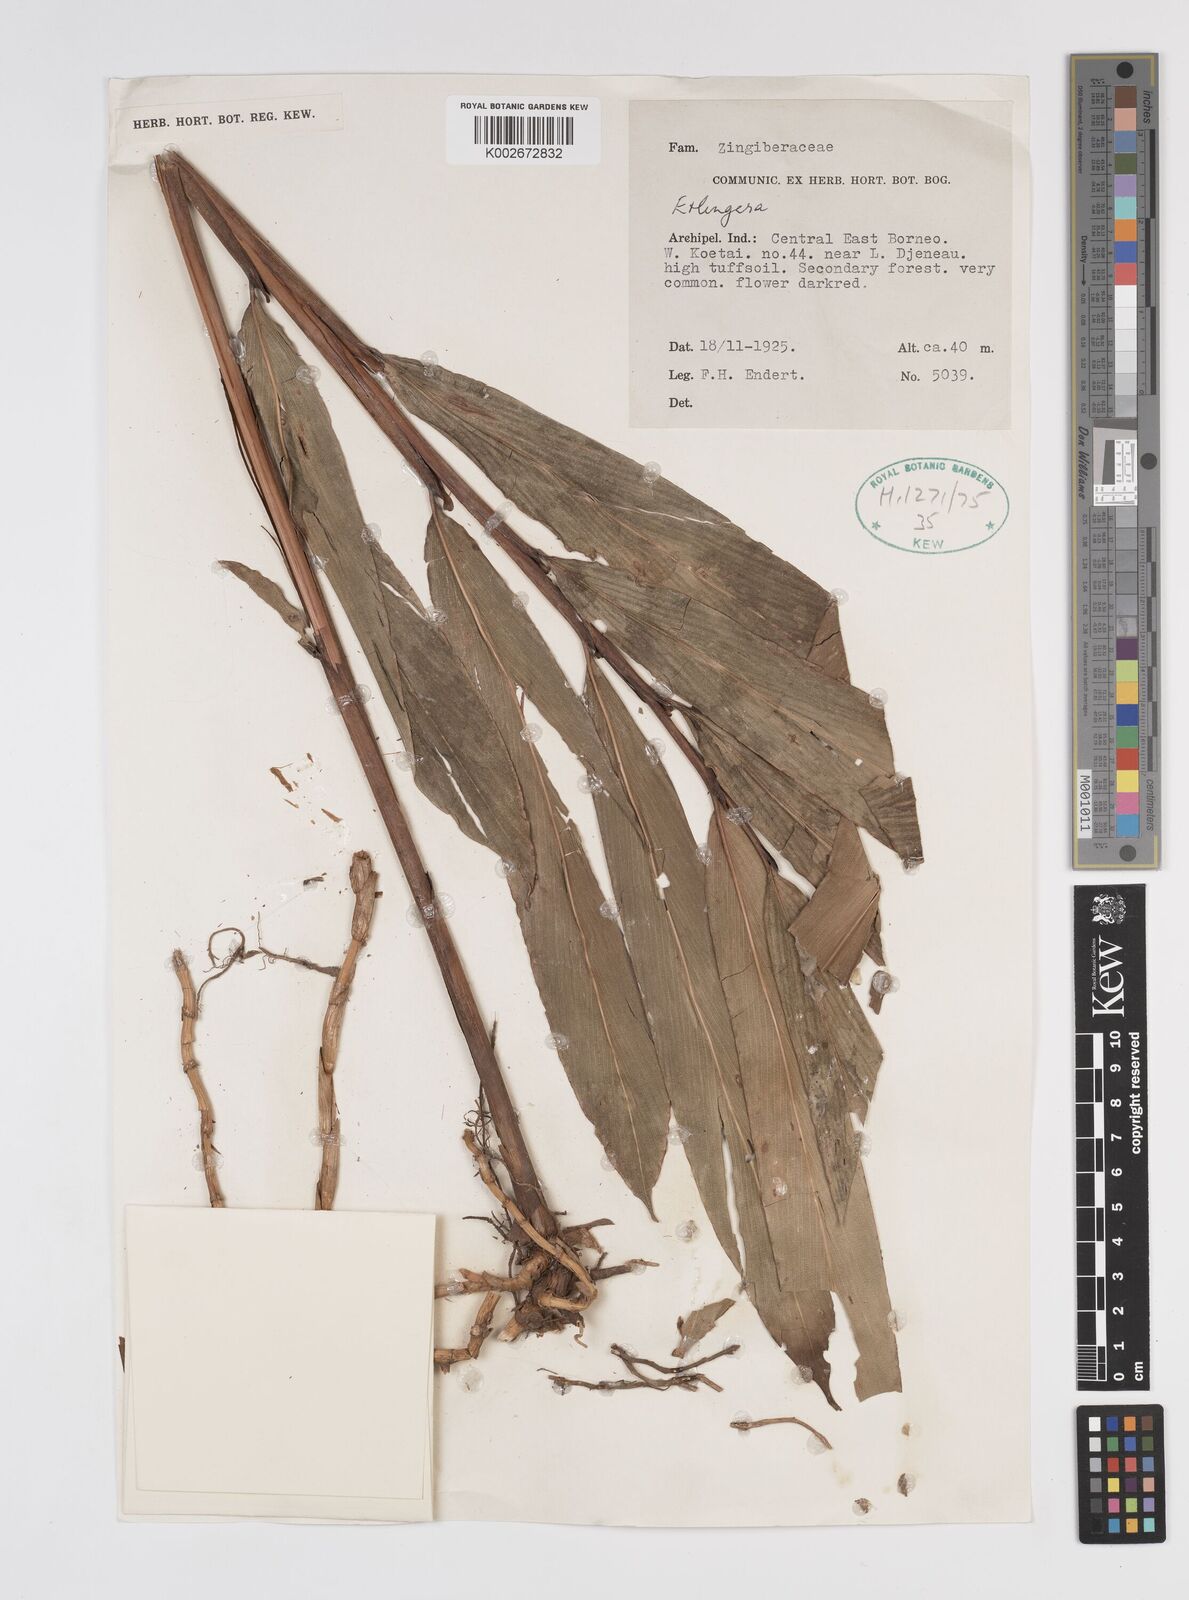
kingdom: Plantae
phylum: Tracheophyta
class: Liliopsida
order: Zingiberales
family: Zingiberaceae
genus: Etlingera
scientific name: Etlingera
